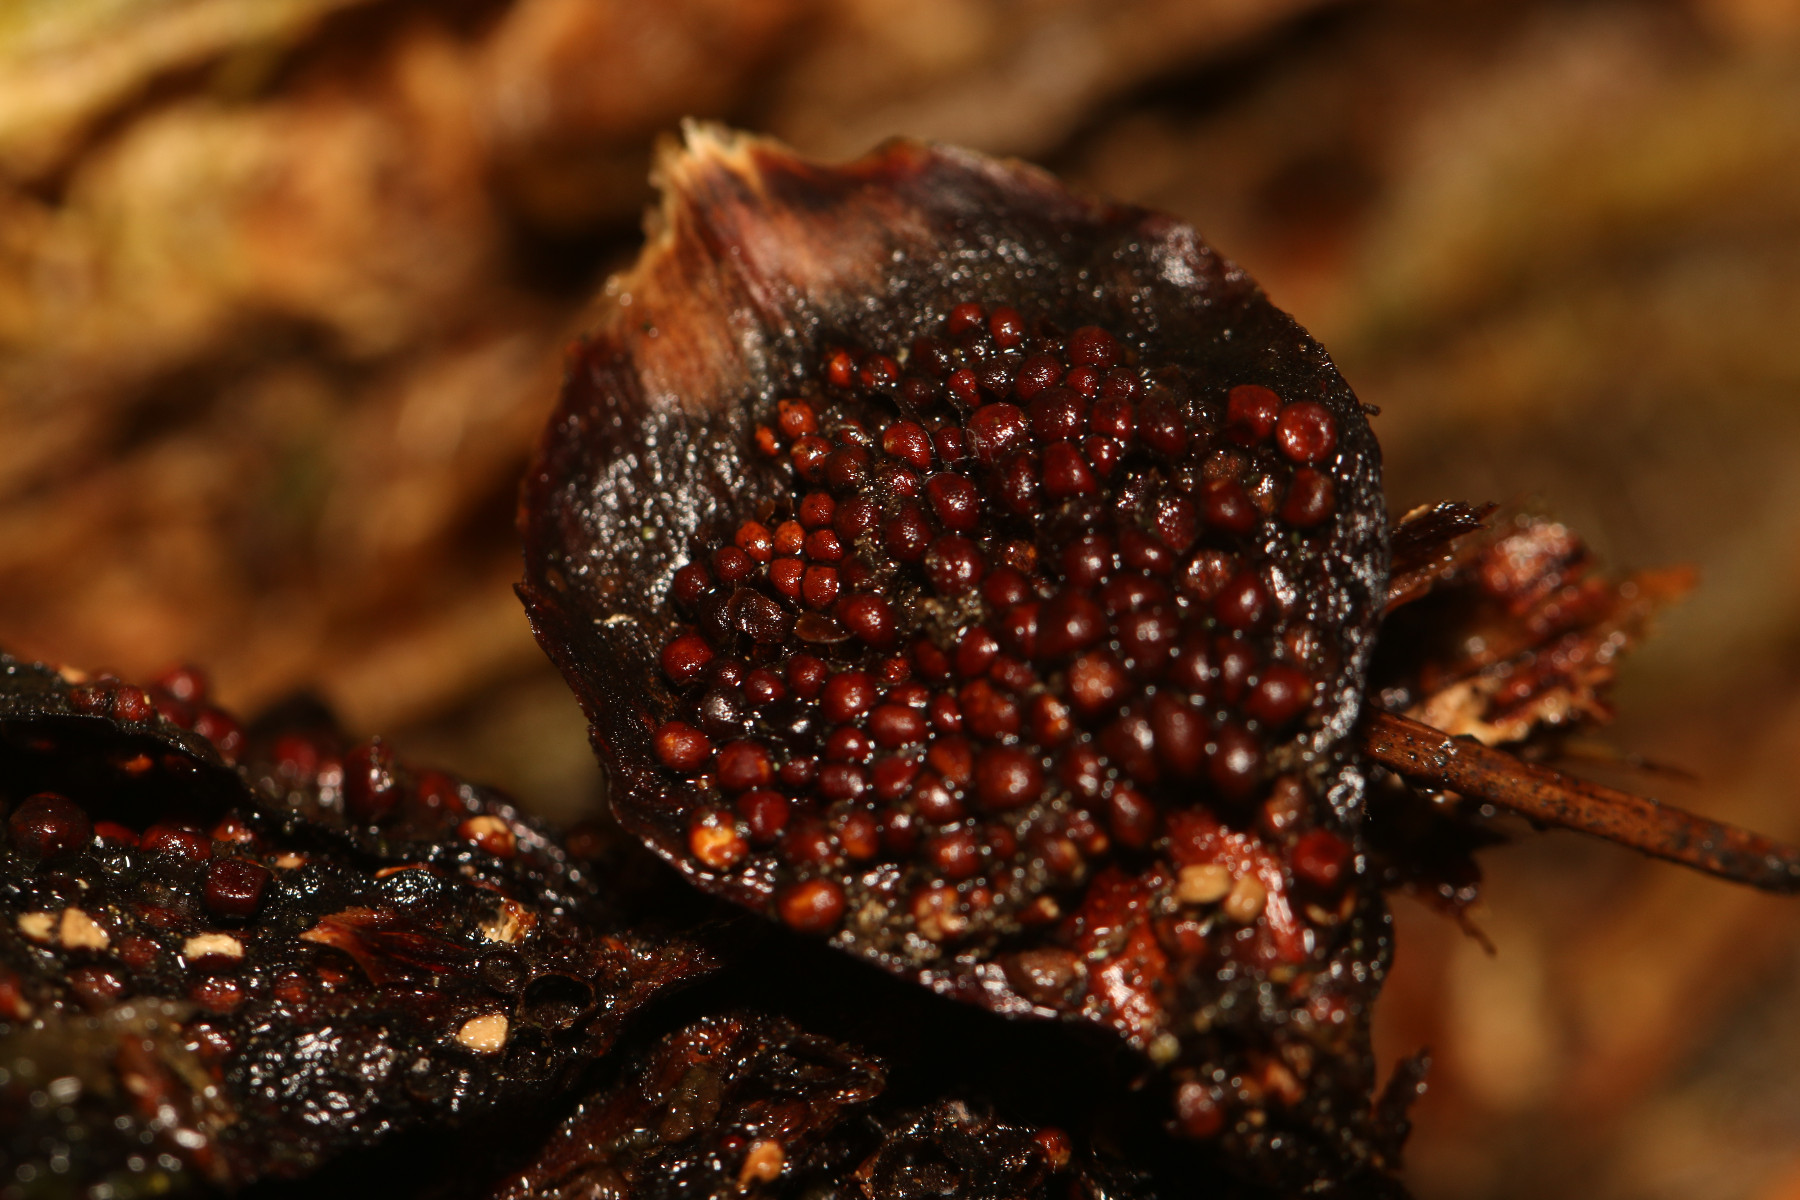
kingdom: Fungi
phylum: Basidiomycota
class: Pucciniomycetes
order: Pucciniales
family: Pucciniastraceae
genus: Thekopsora
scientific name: Thekopsora areolata
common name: grankogle-nålerust
